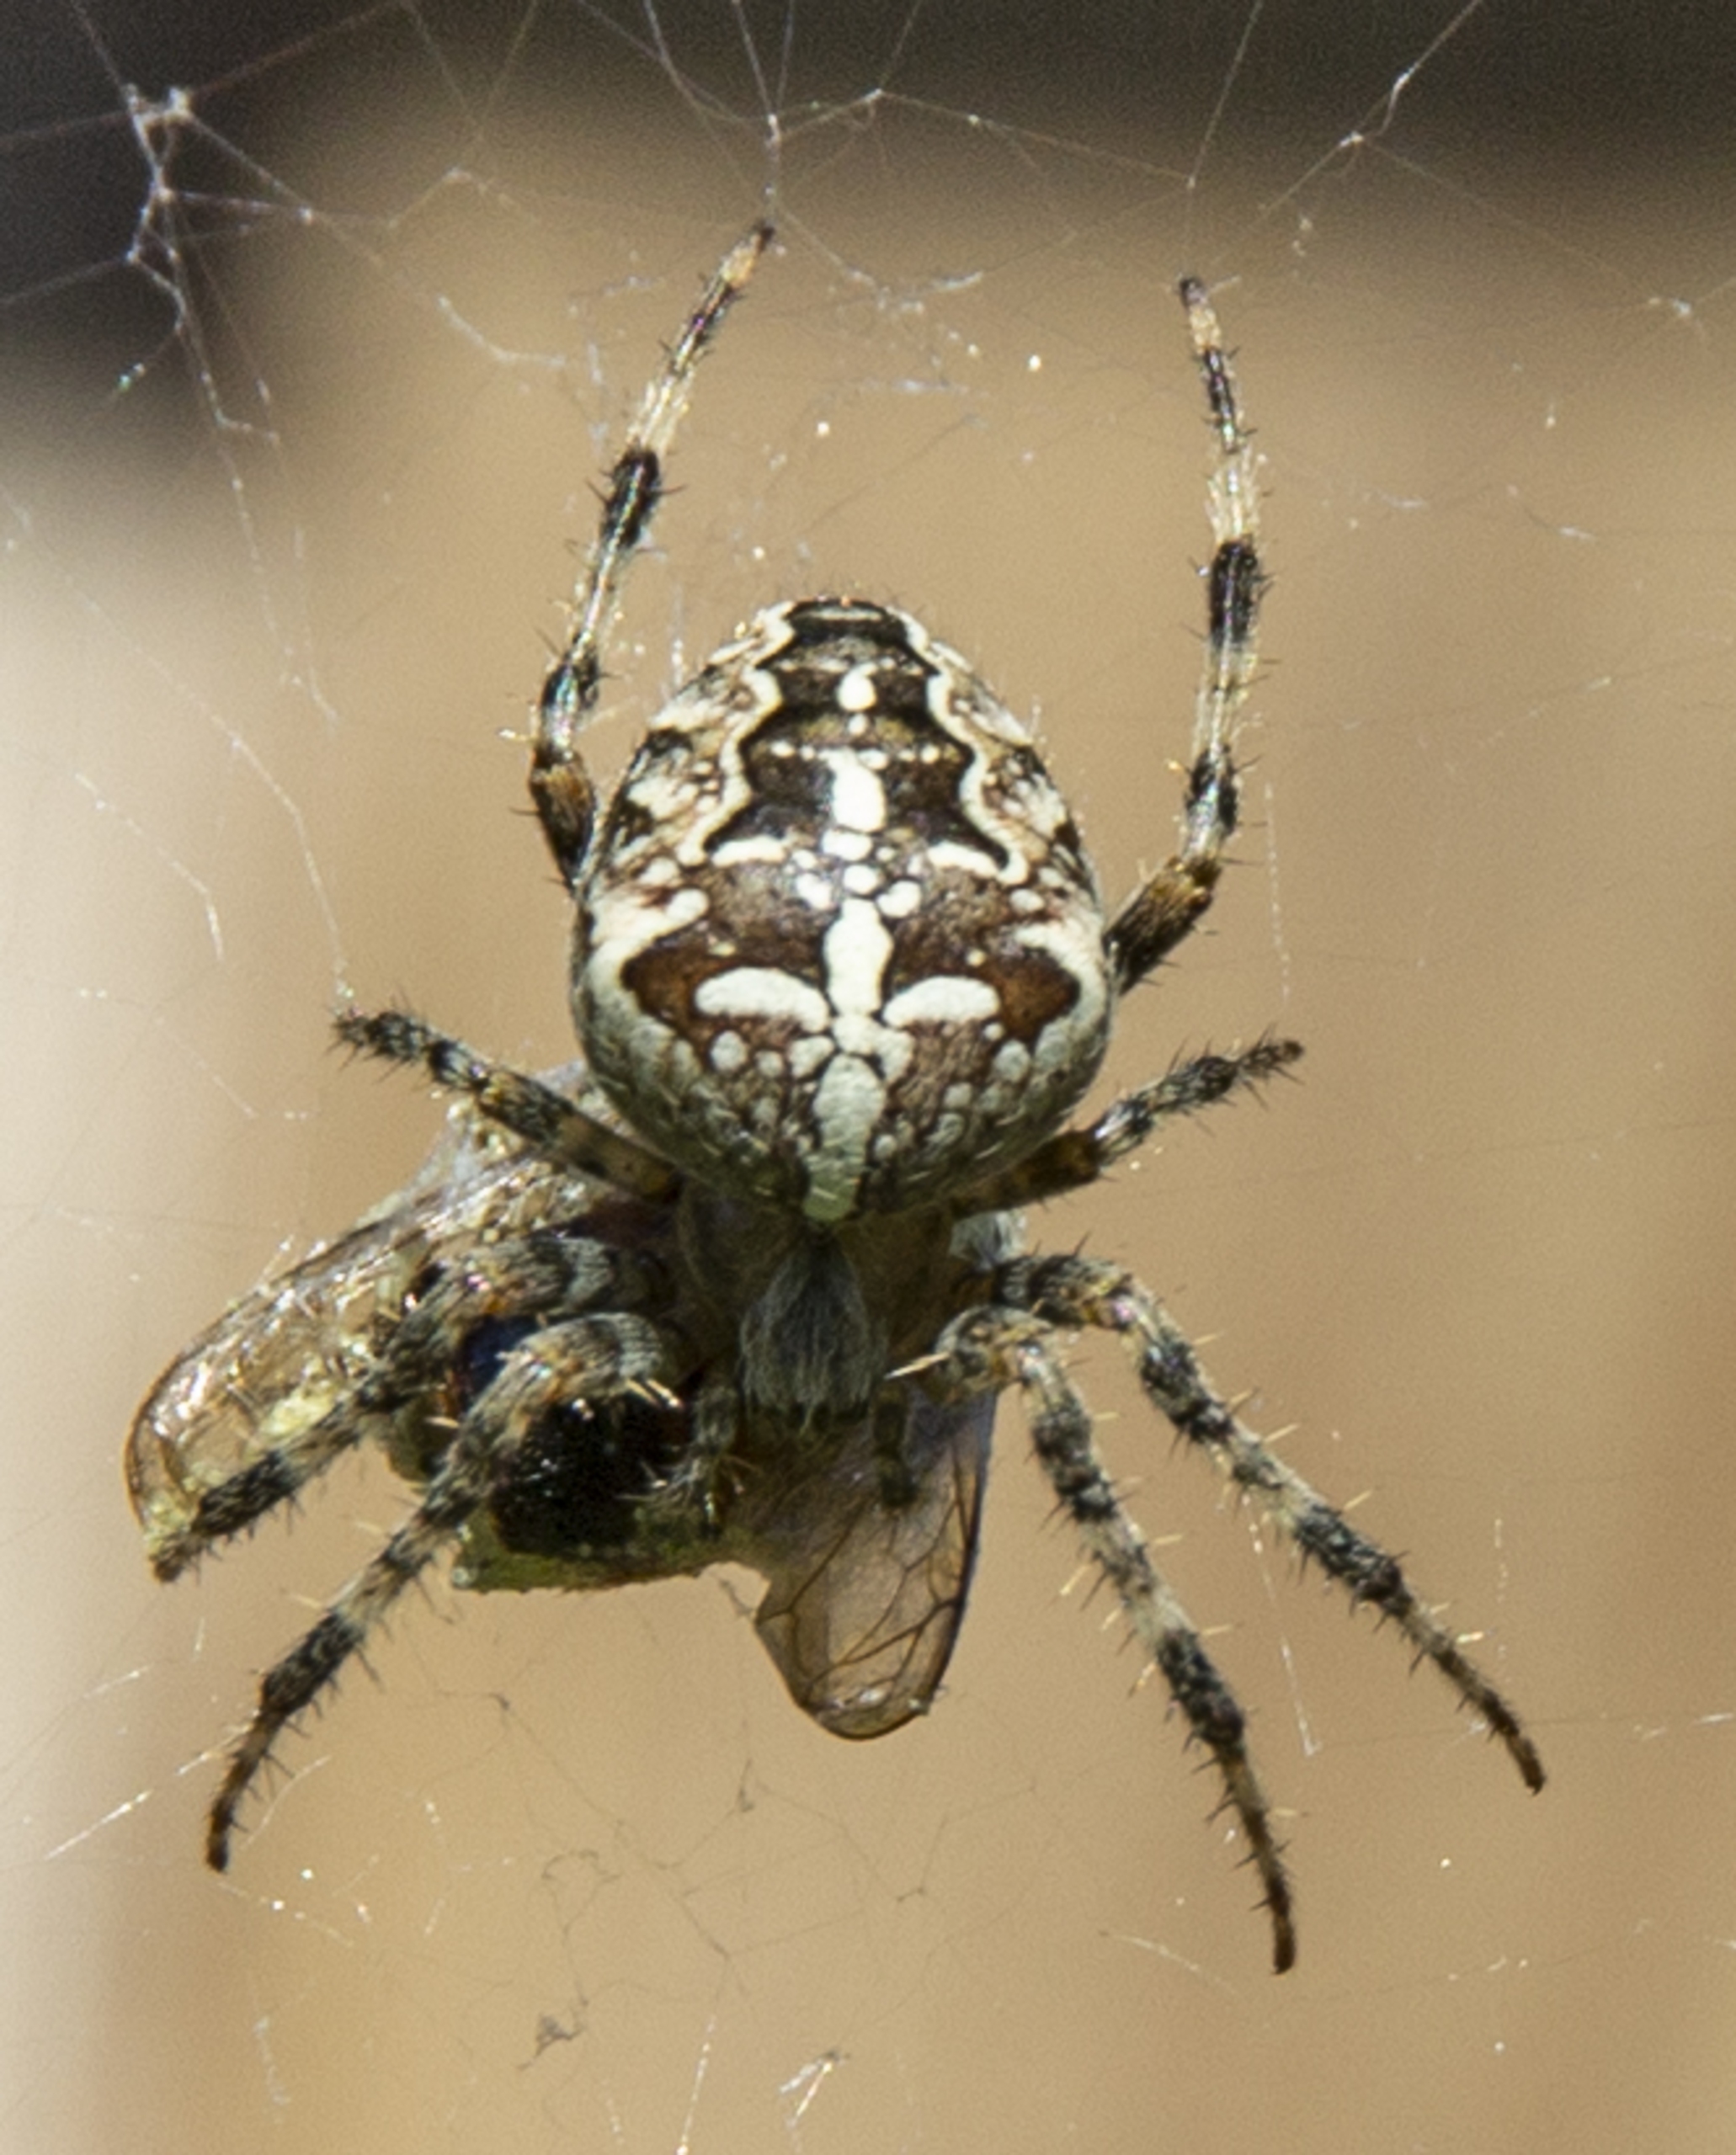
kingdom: Animalia
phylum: Arthropoda
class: Arachnida
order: Araneae
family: Araneidae
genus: Araneus
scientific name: Araneus diadematus
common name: Korsedderkop
